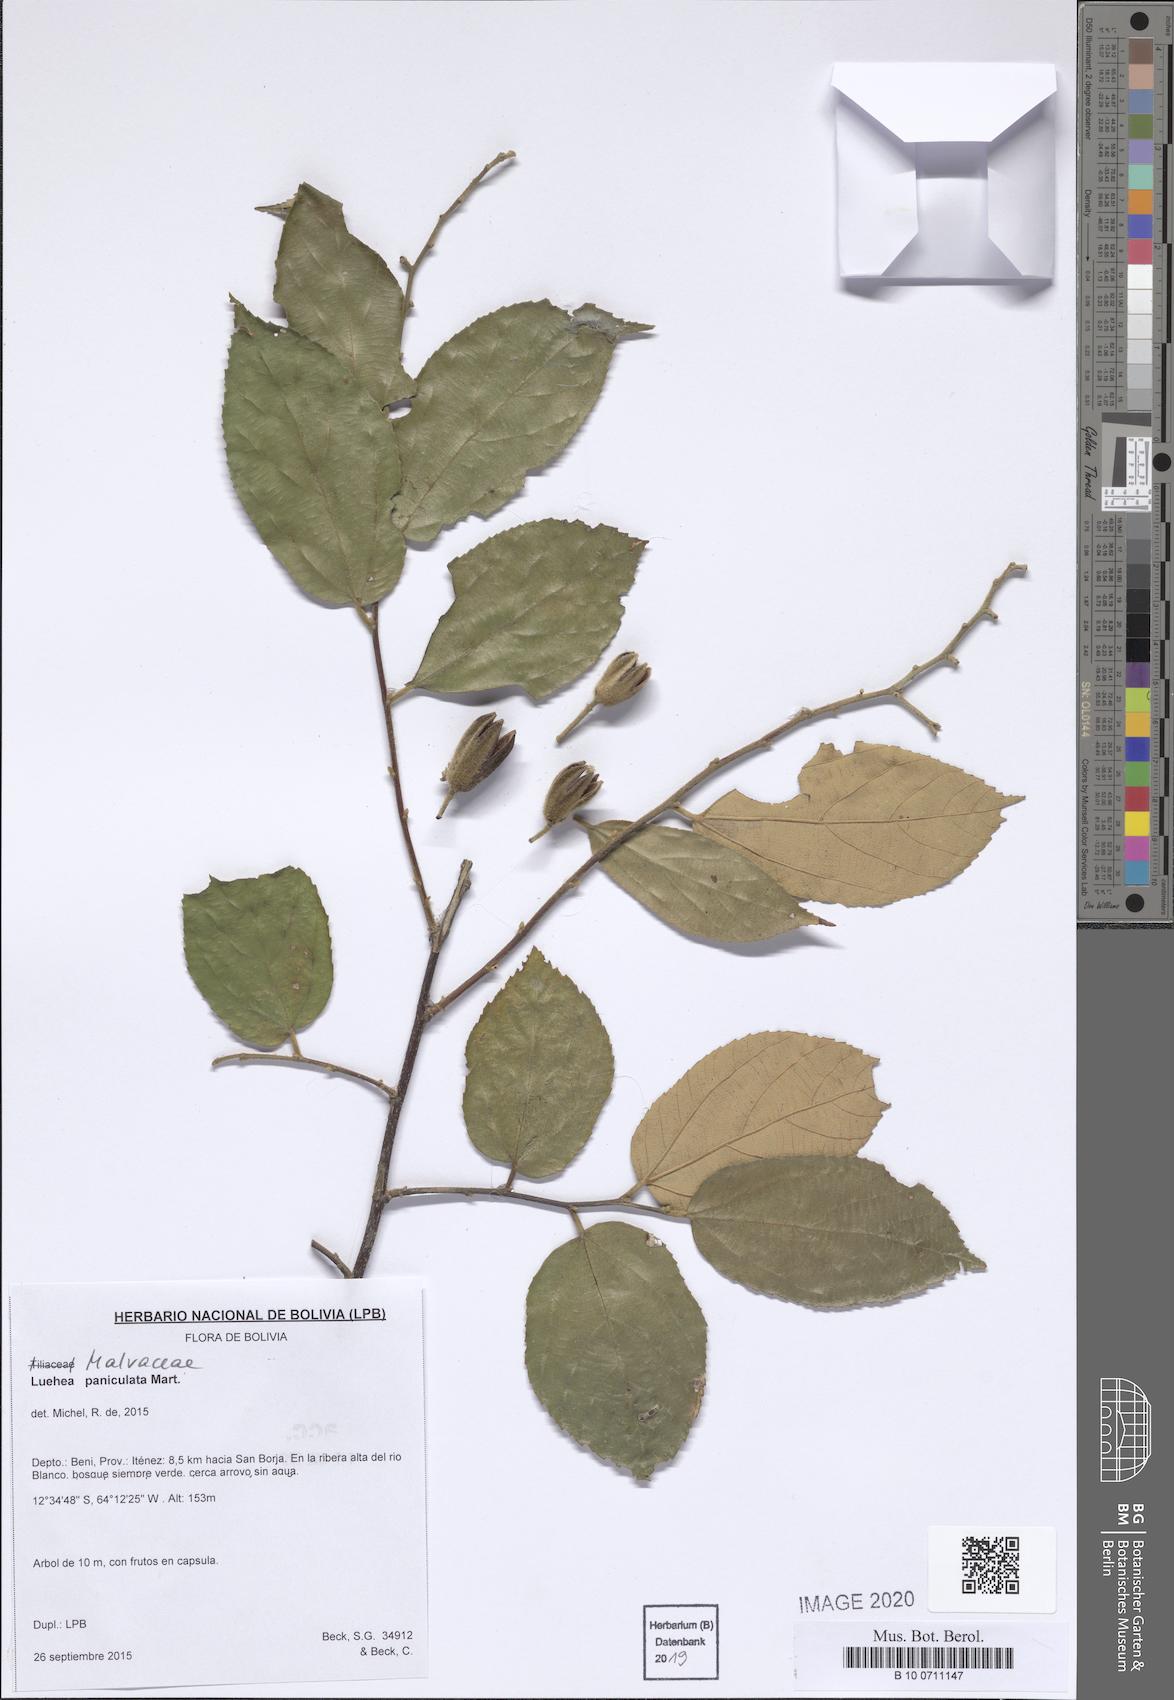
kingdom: Plantae
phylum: Tracheophyta
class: Magnoliopsida
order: Malvales
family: Malvaceae
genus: Luehea
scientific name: Luehea paniculata
